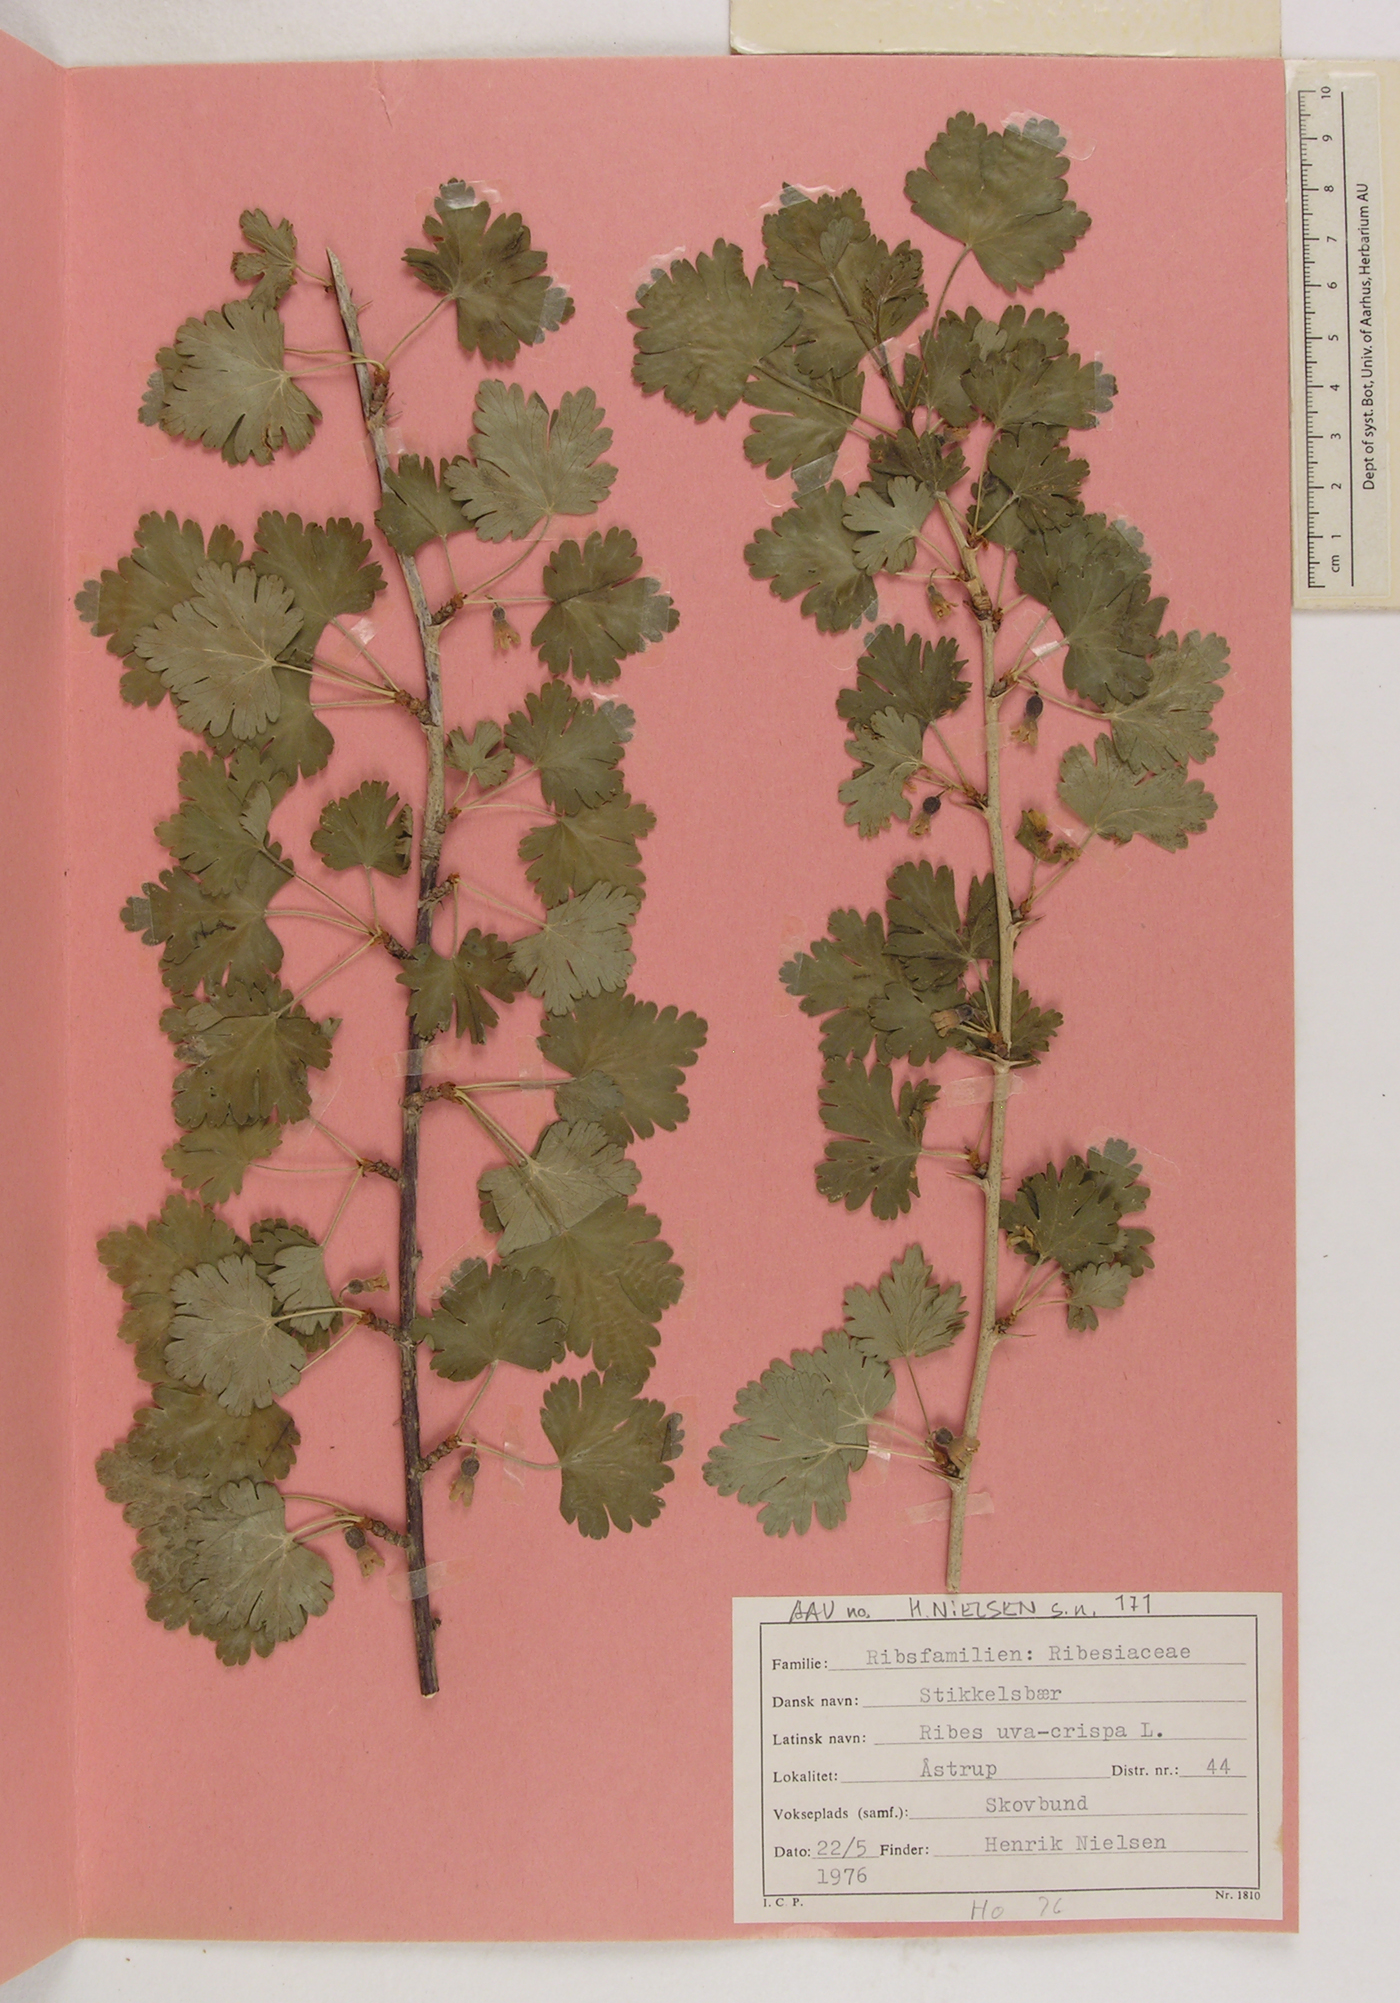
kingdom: Plantae
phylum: Tracheophyta
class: Magnoliopsida
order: Saxifragales
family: Grossulariaceae
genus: Ribes
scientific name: Ribes uva-crispa
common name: Gooseberry
